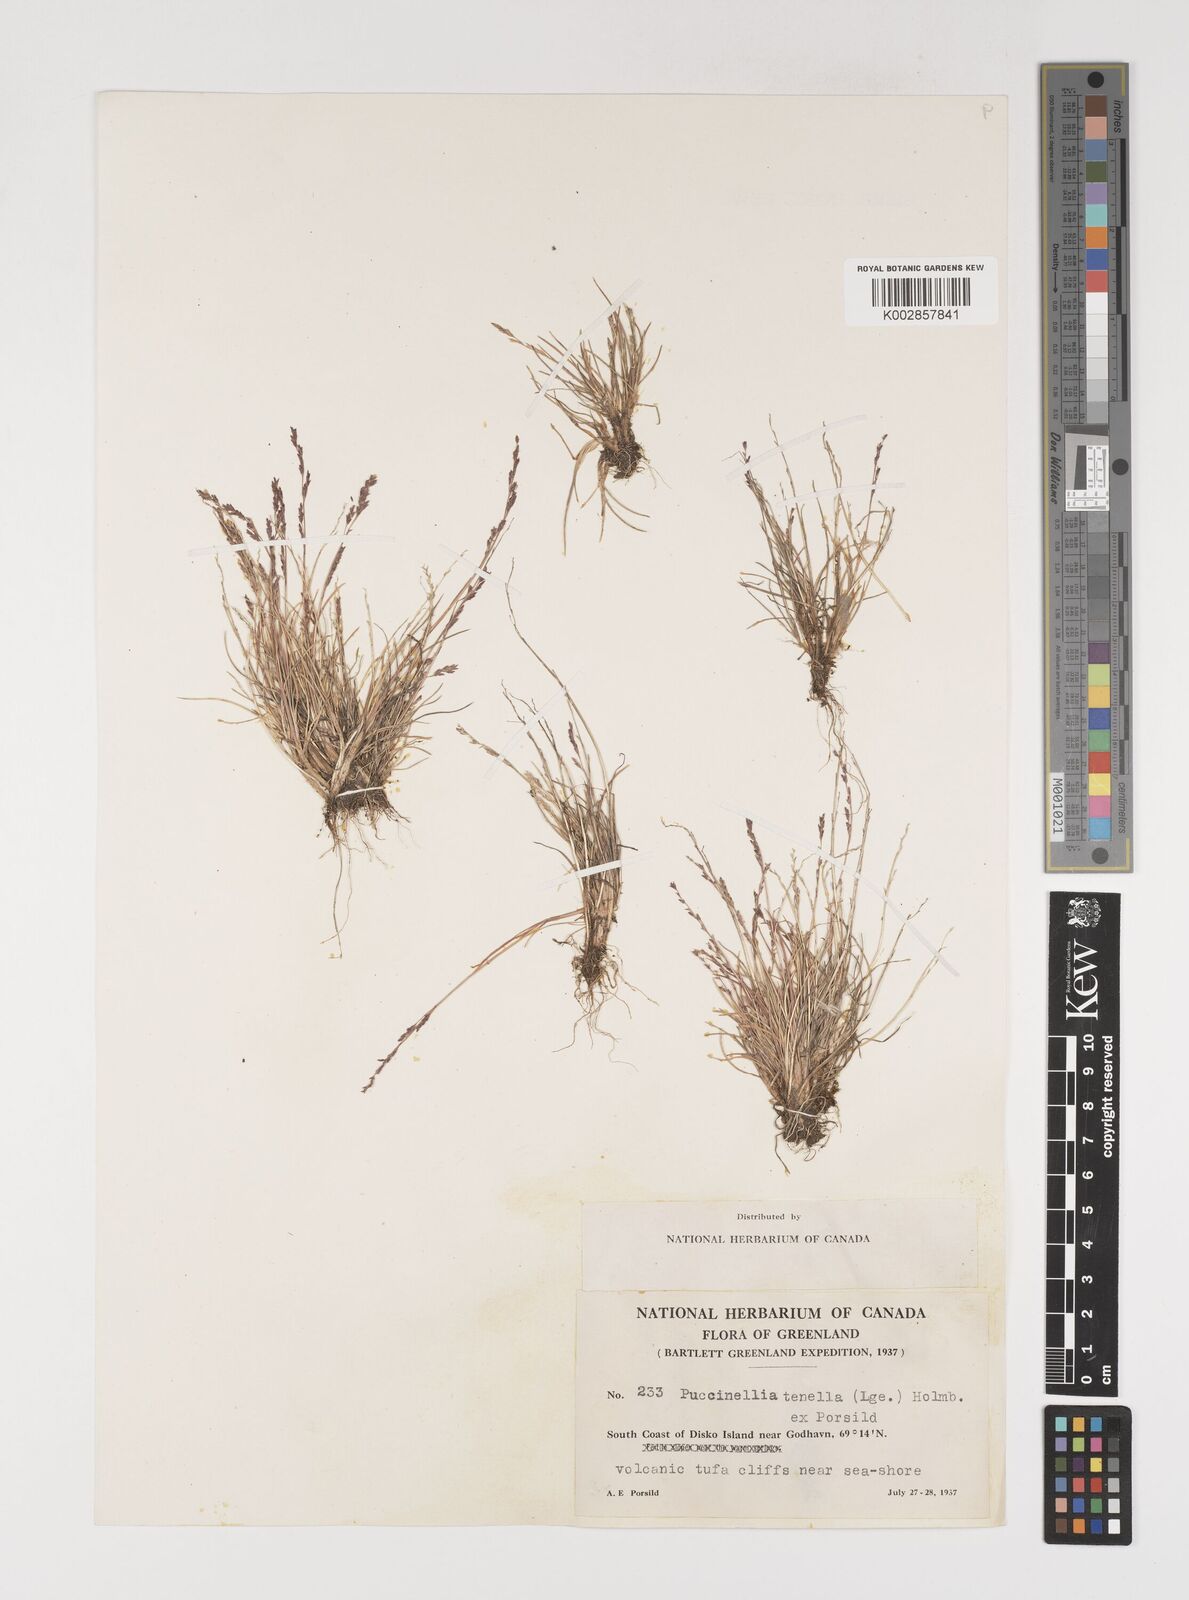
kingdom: Plantae
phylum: Tracheophyta
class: Liliopsida
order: Poales
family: Poaceae
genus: Puccinellia
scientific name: Puccinellia tenella
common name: Tundra alkaligrass
